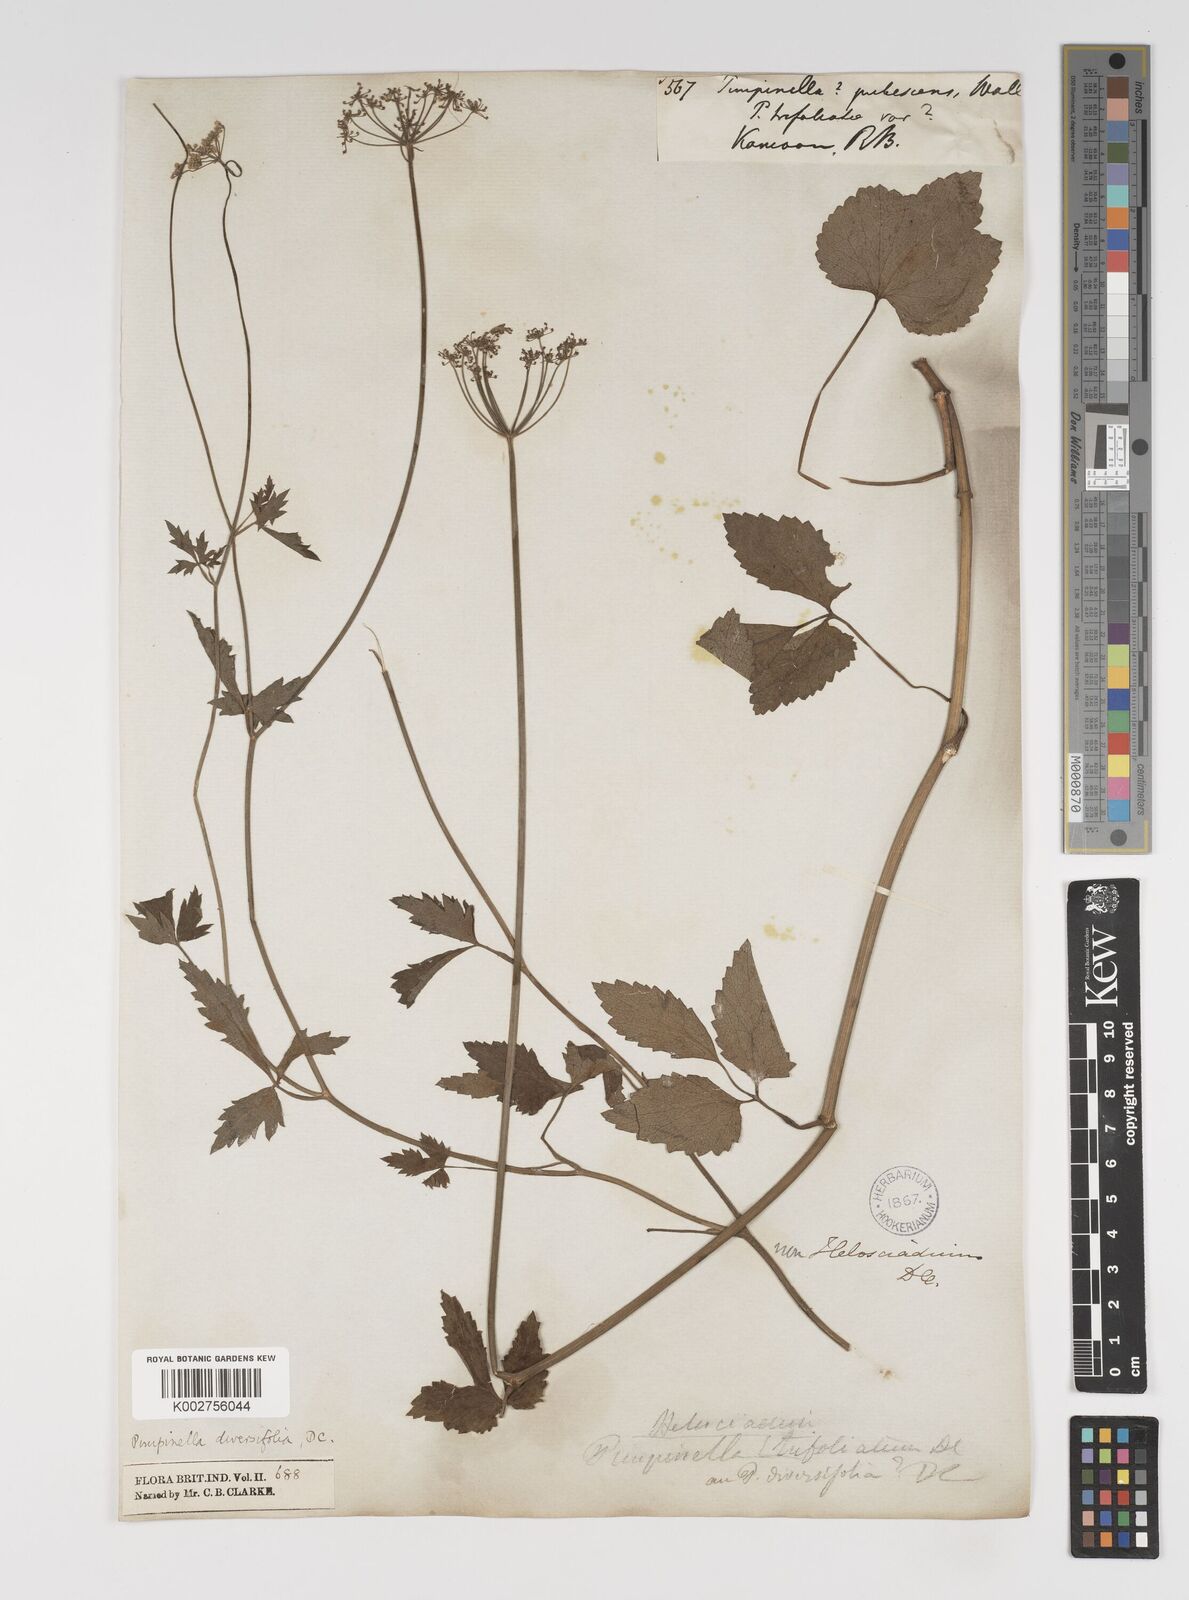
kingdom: Plantae
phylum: Tracheophyta
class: Magnoliopsida
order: Apiales
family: Apiaceae
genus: Pimpinella
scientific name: Pimpinella diversifolia
